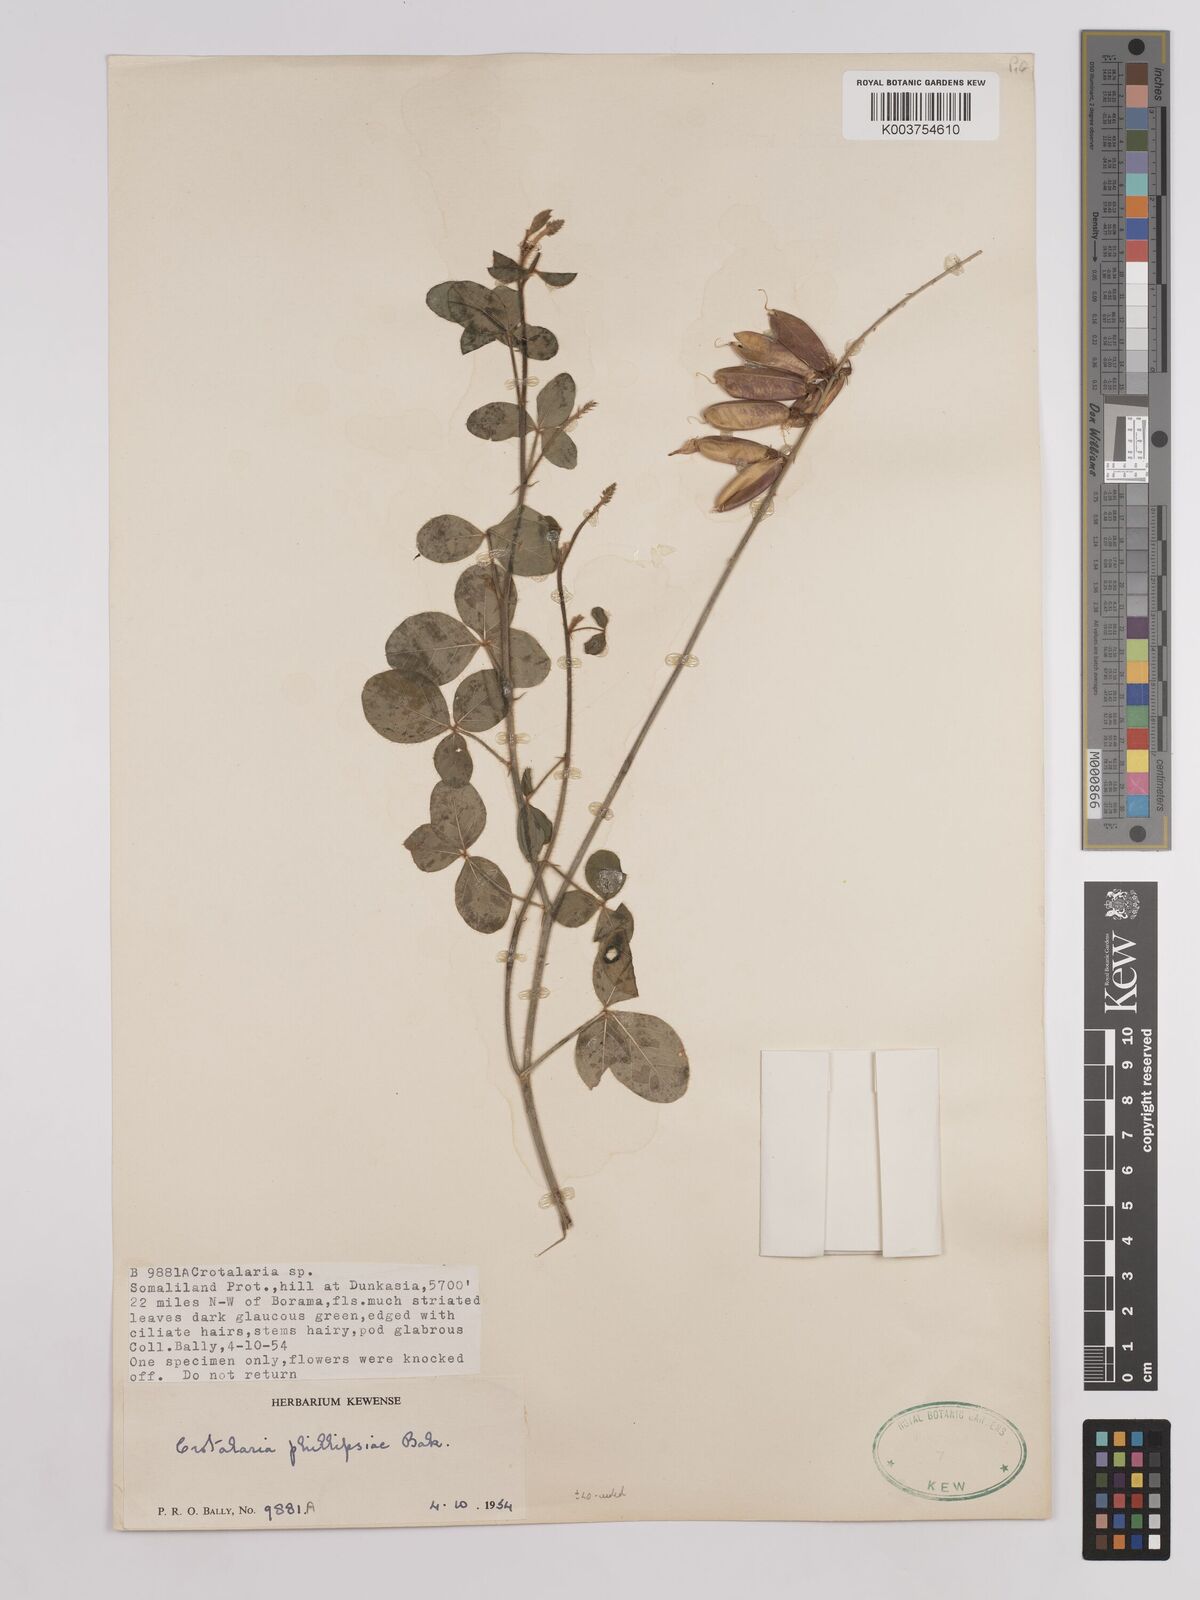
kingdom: Plantae
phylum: Tracheophyta
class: Magnoliopsida
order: Fabales
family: Fabaceae
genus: Crotalaria
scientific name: Crotalaria phillipsiae
